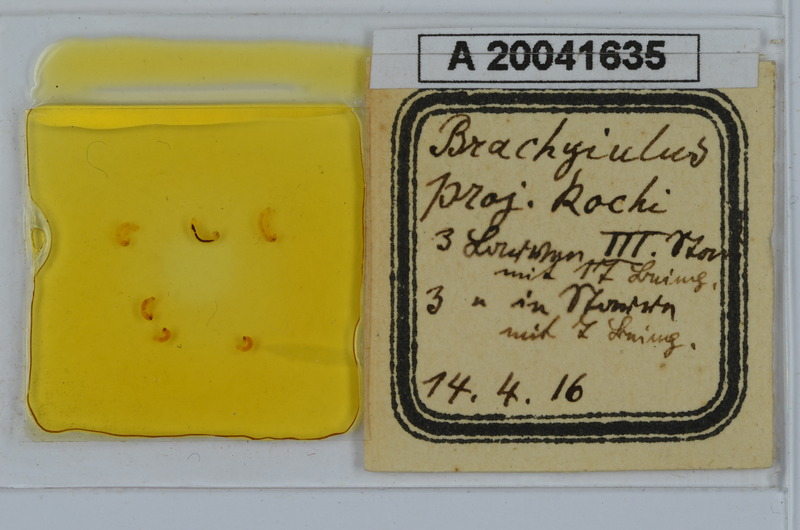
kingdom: Animalia
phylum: Arthropoda
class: Diplopoda
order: Julida
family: Julidae
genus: Megaphyllum
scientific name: Megaphyllum projectum
